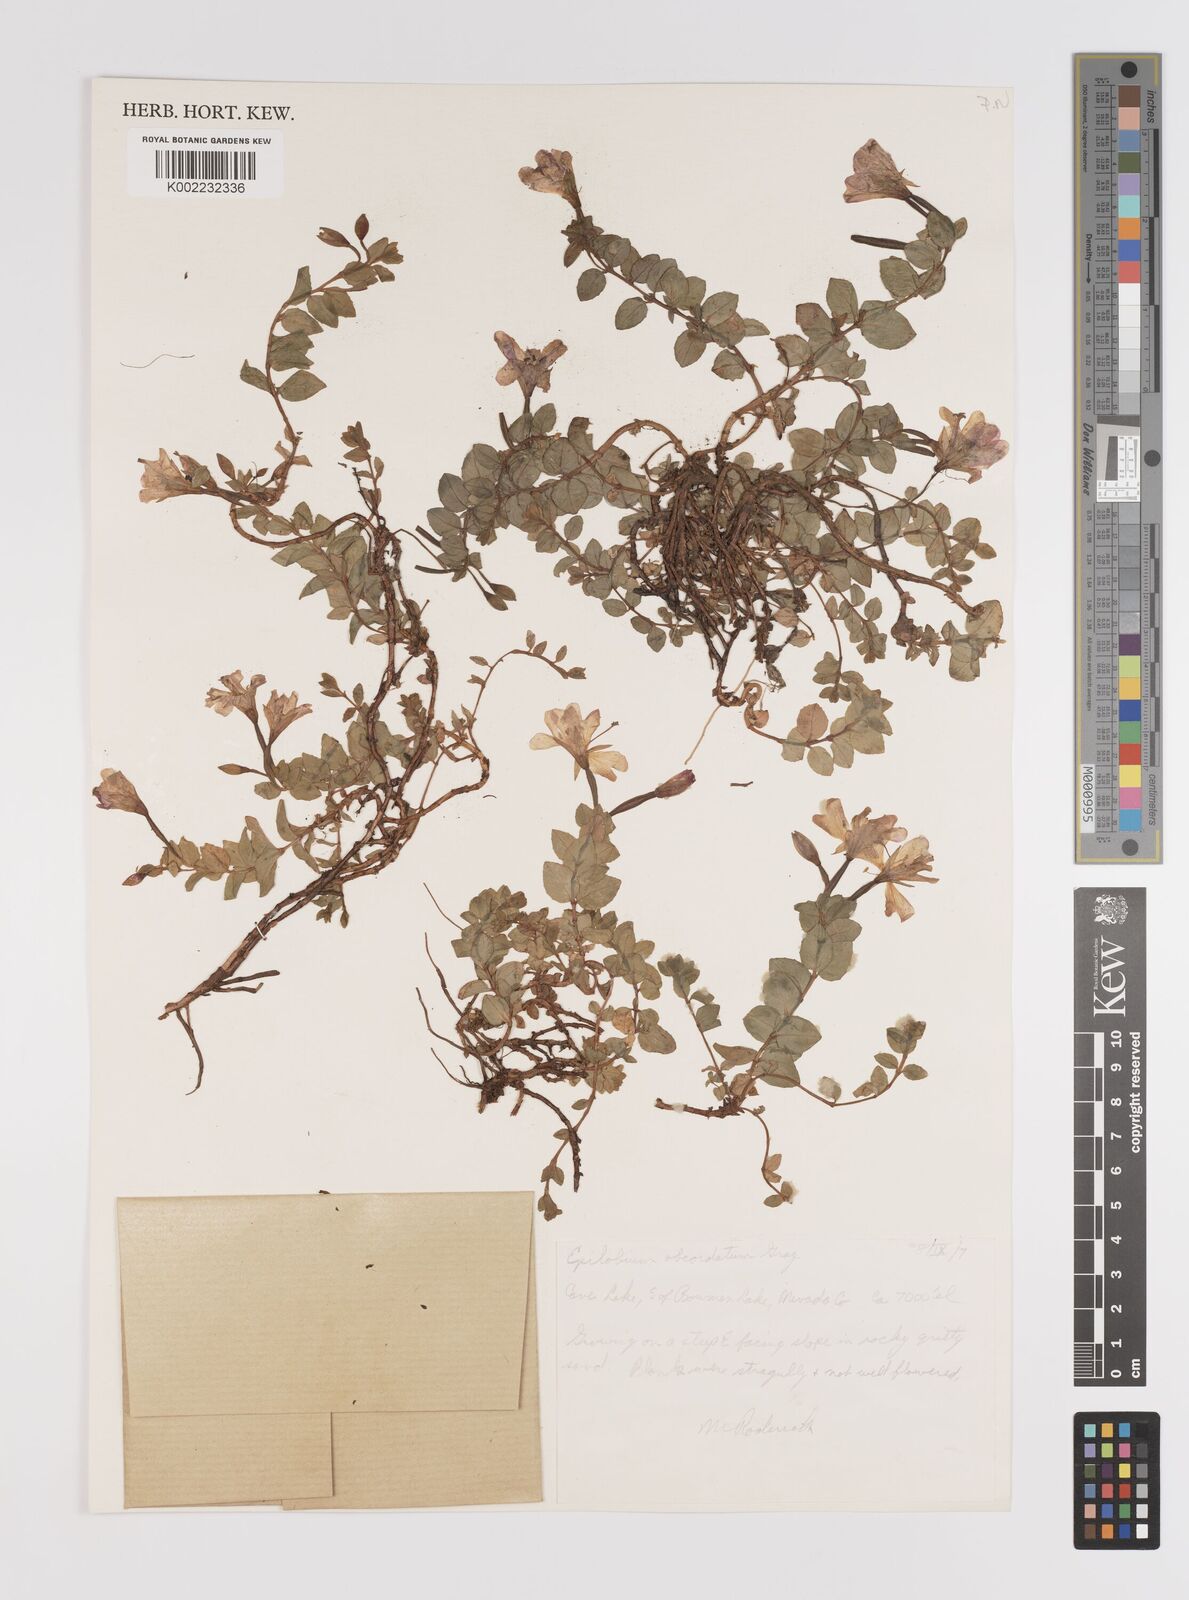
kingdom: Plantae
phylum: Tracheophyta
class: Magnoliopsida
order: Myrtales
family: Onagraceae
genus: Epilobium
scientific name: Epilobium obcordatum
